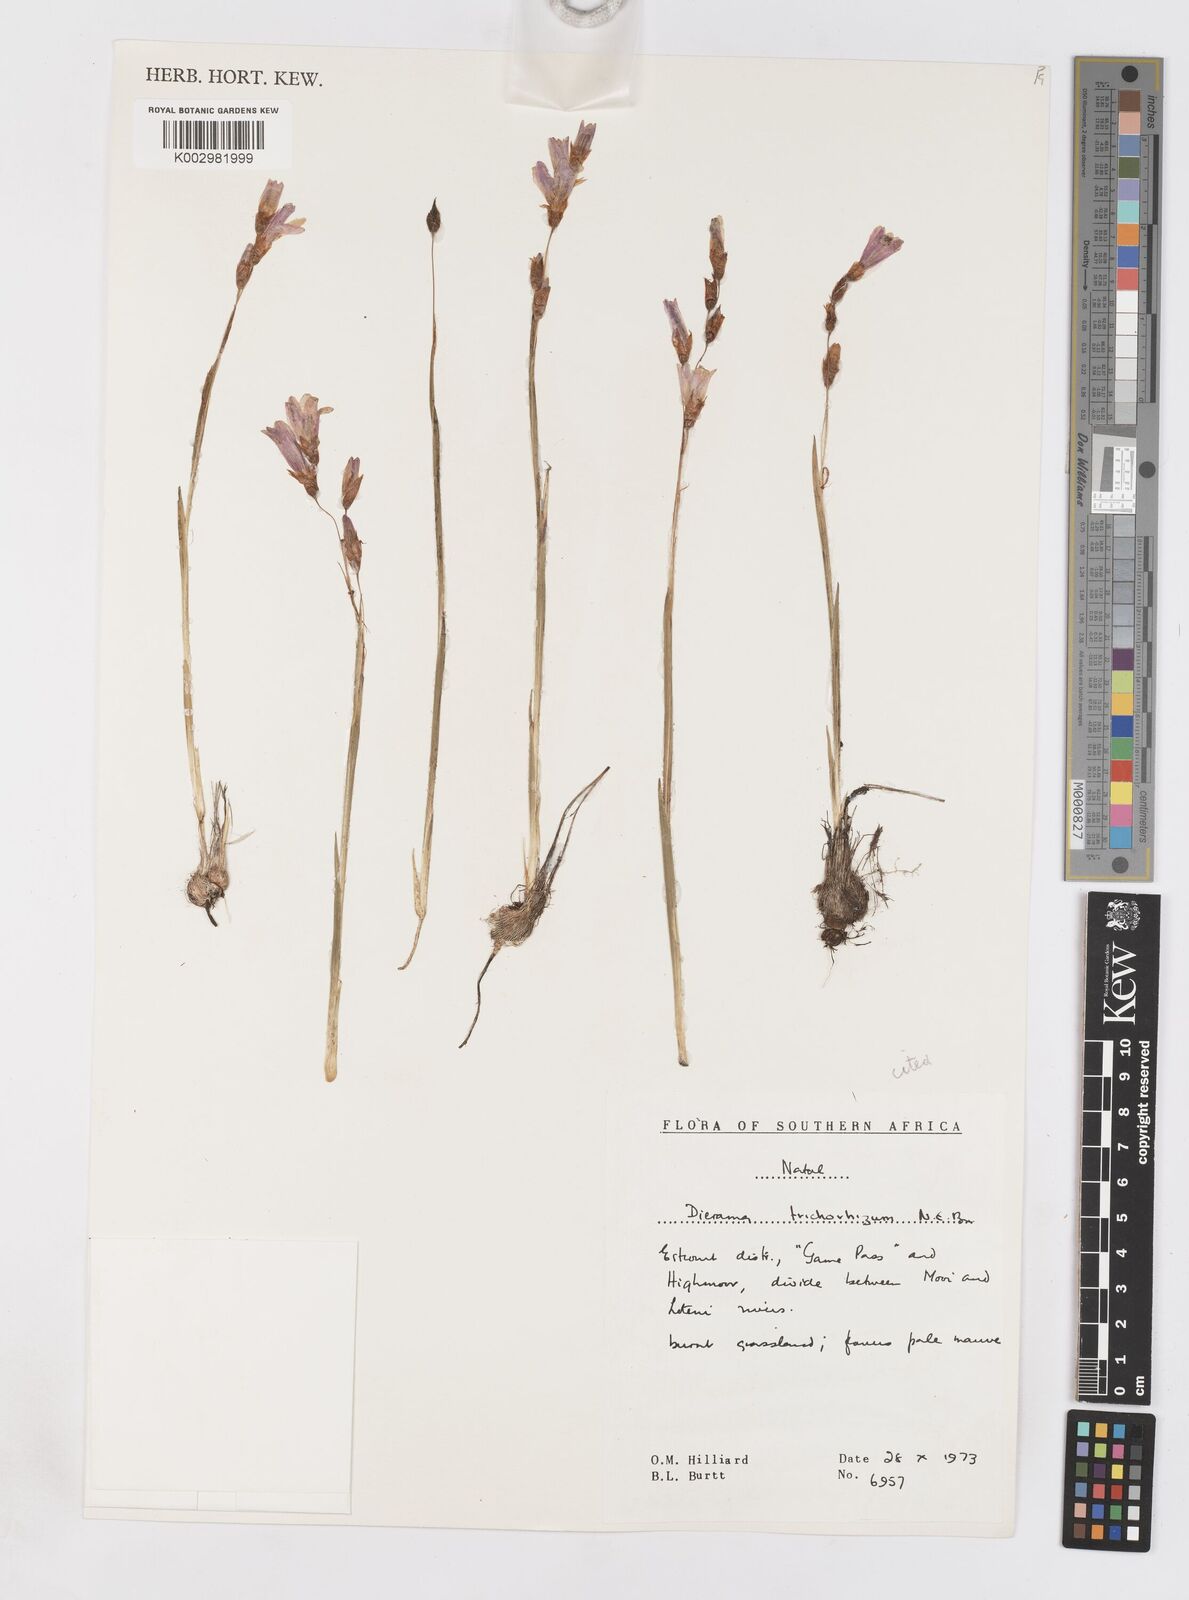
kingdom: Plantae
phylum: Tracheophyta
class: Liliopsida
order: Asparagales
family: Iridaceae
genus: Dierama
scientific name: Dierama trichorhizum
